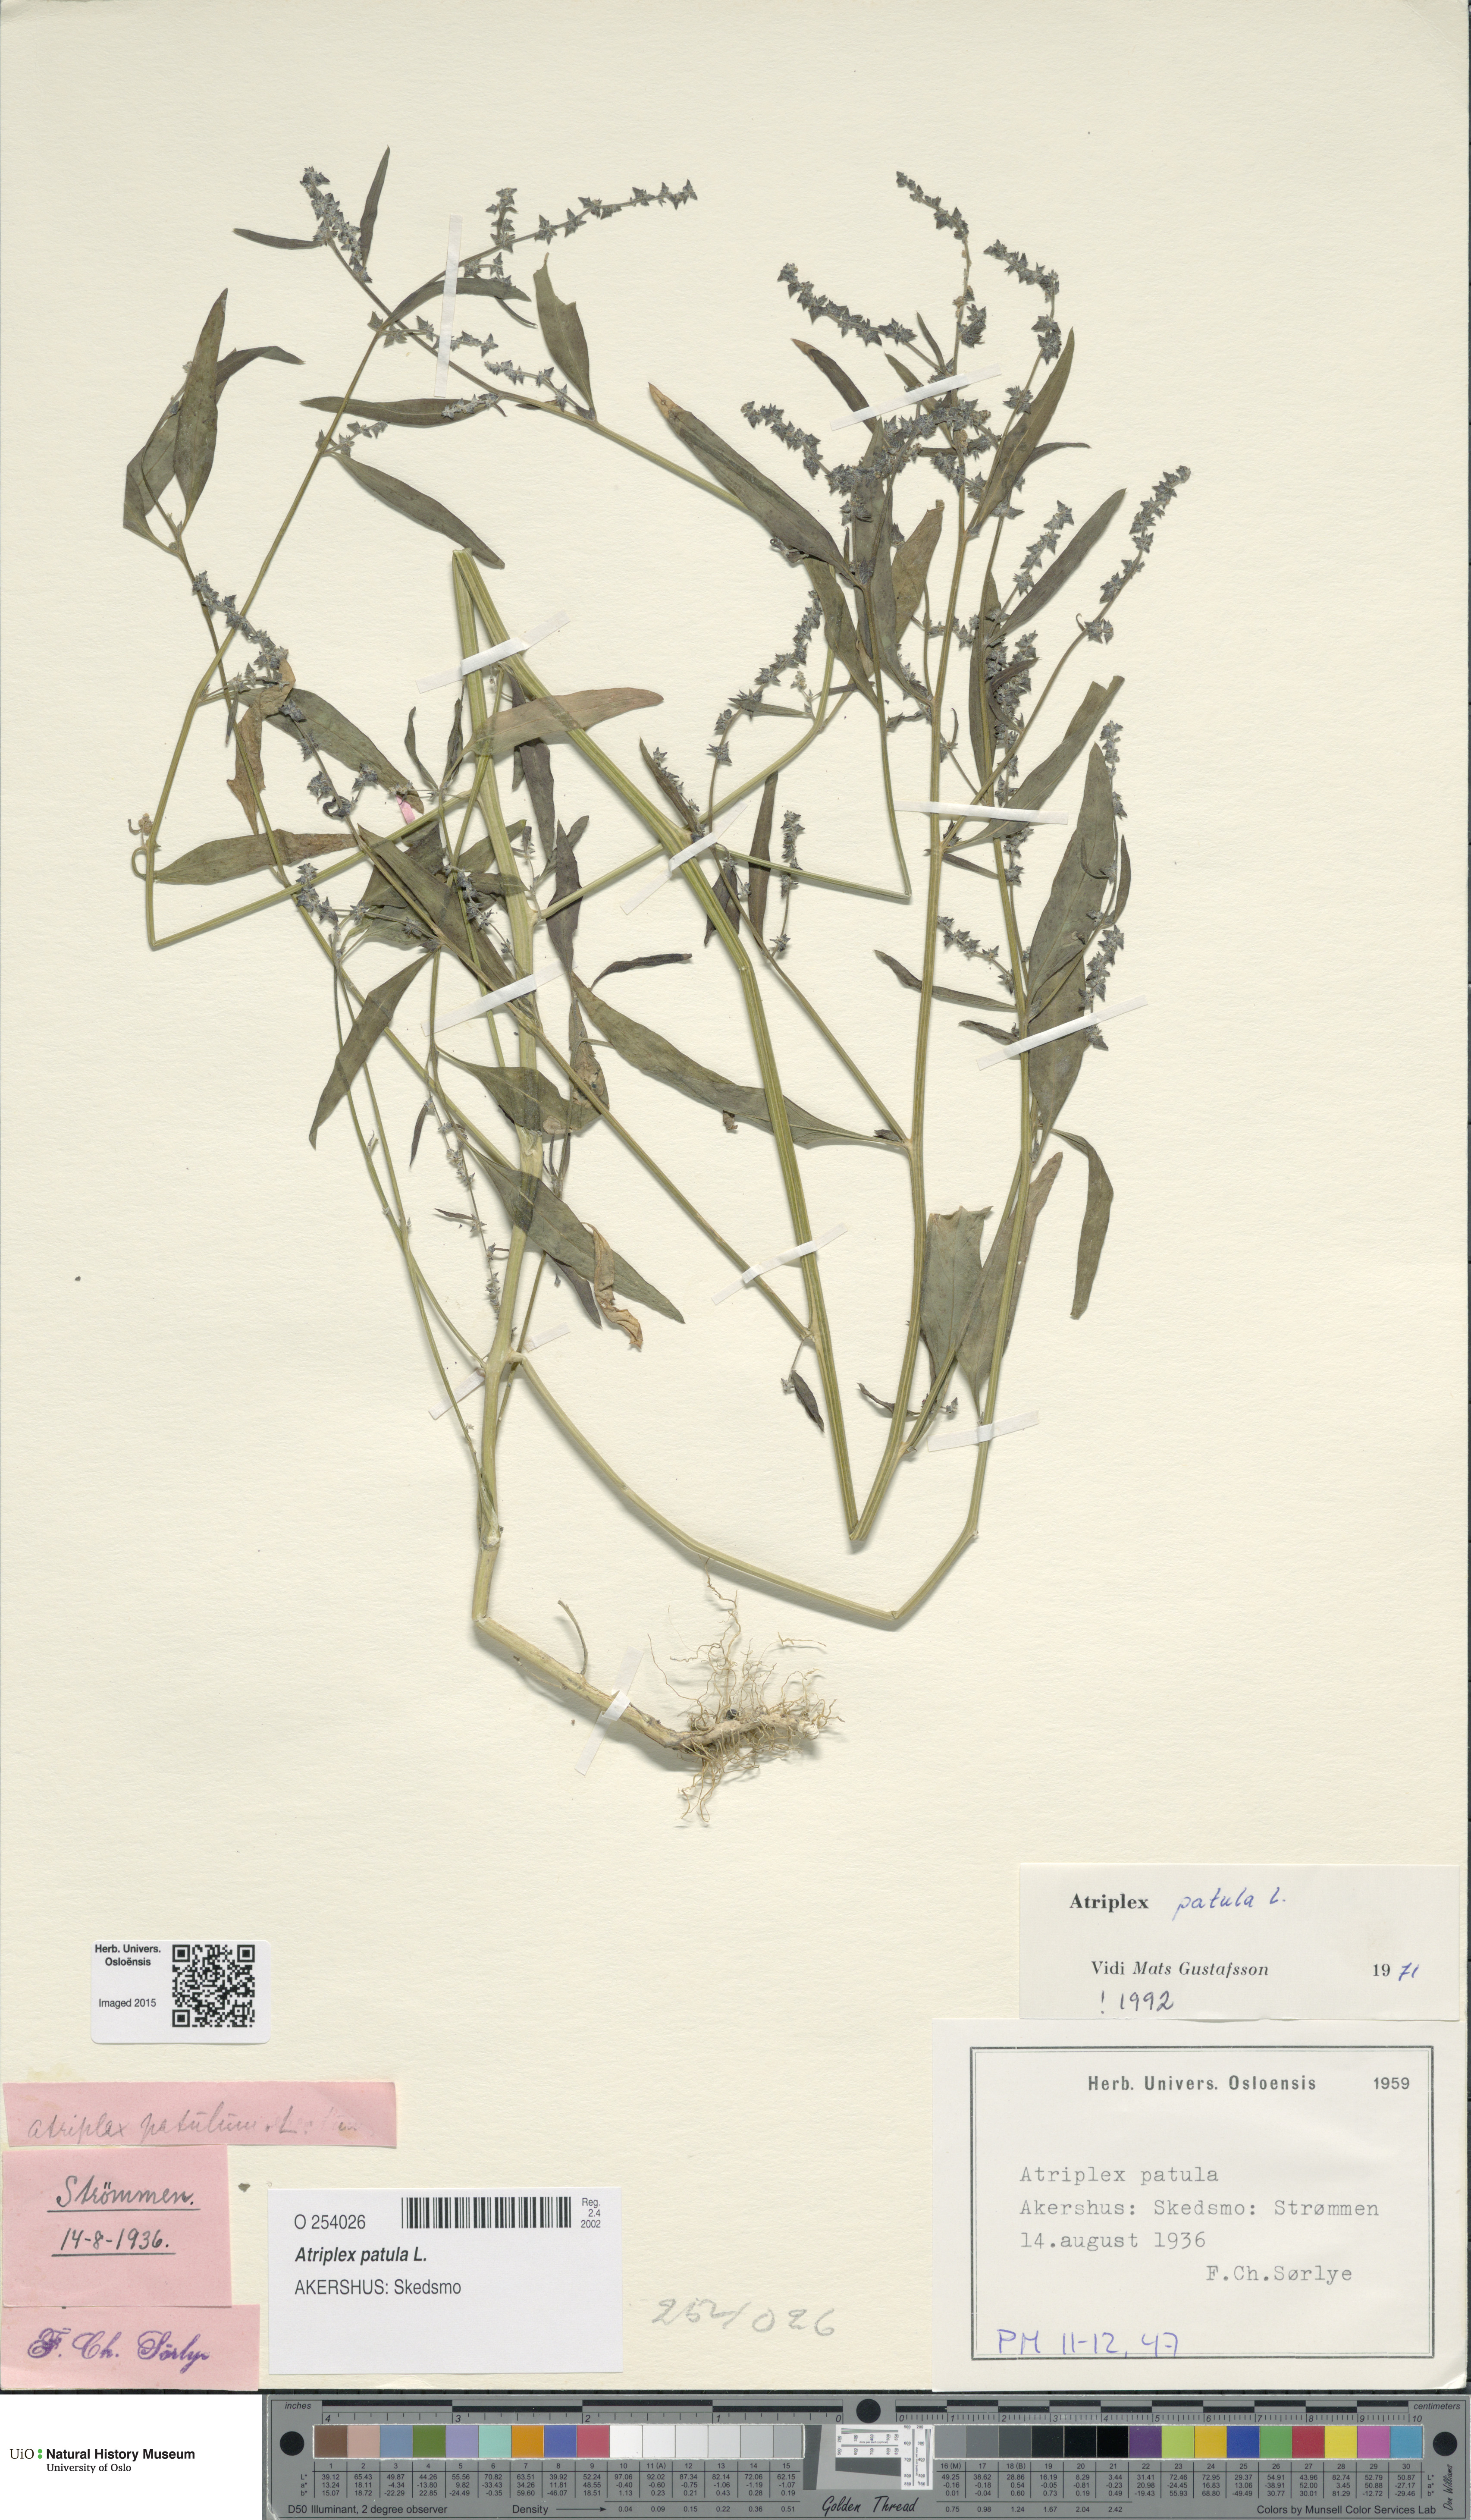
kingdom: Plantae
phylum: Tracheophyta
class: Magnoliopsida
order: Caryophyllales
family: Amaranthaceae
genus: Atriplex
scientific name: Atriplex patula
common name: Common orache
